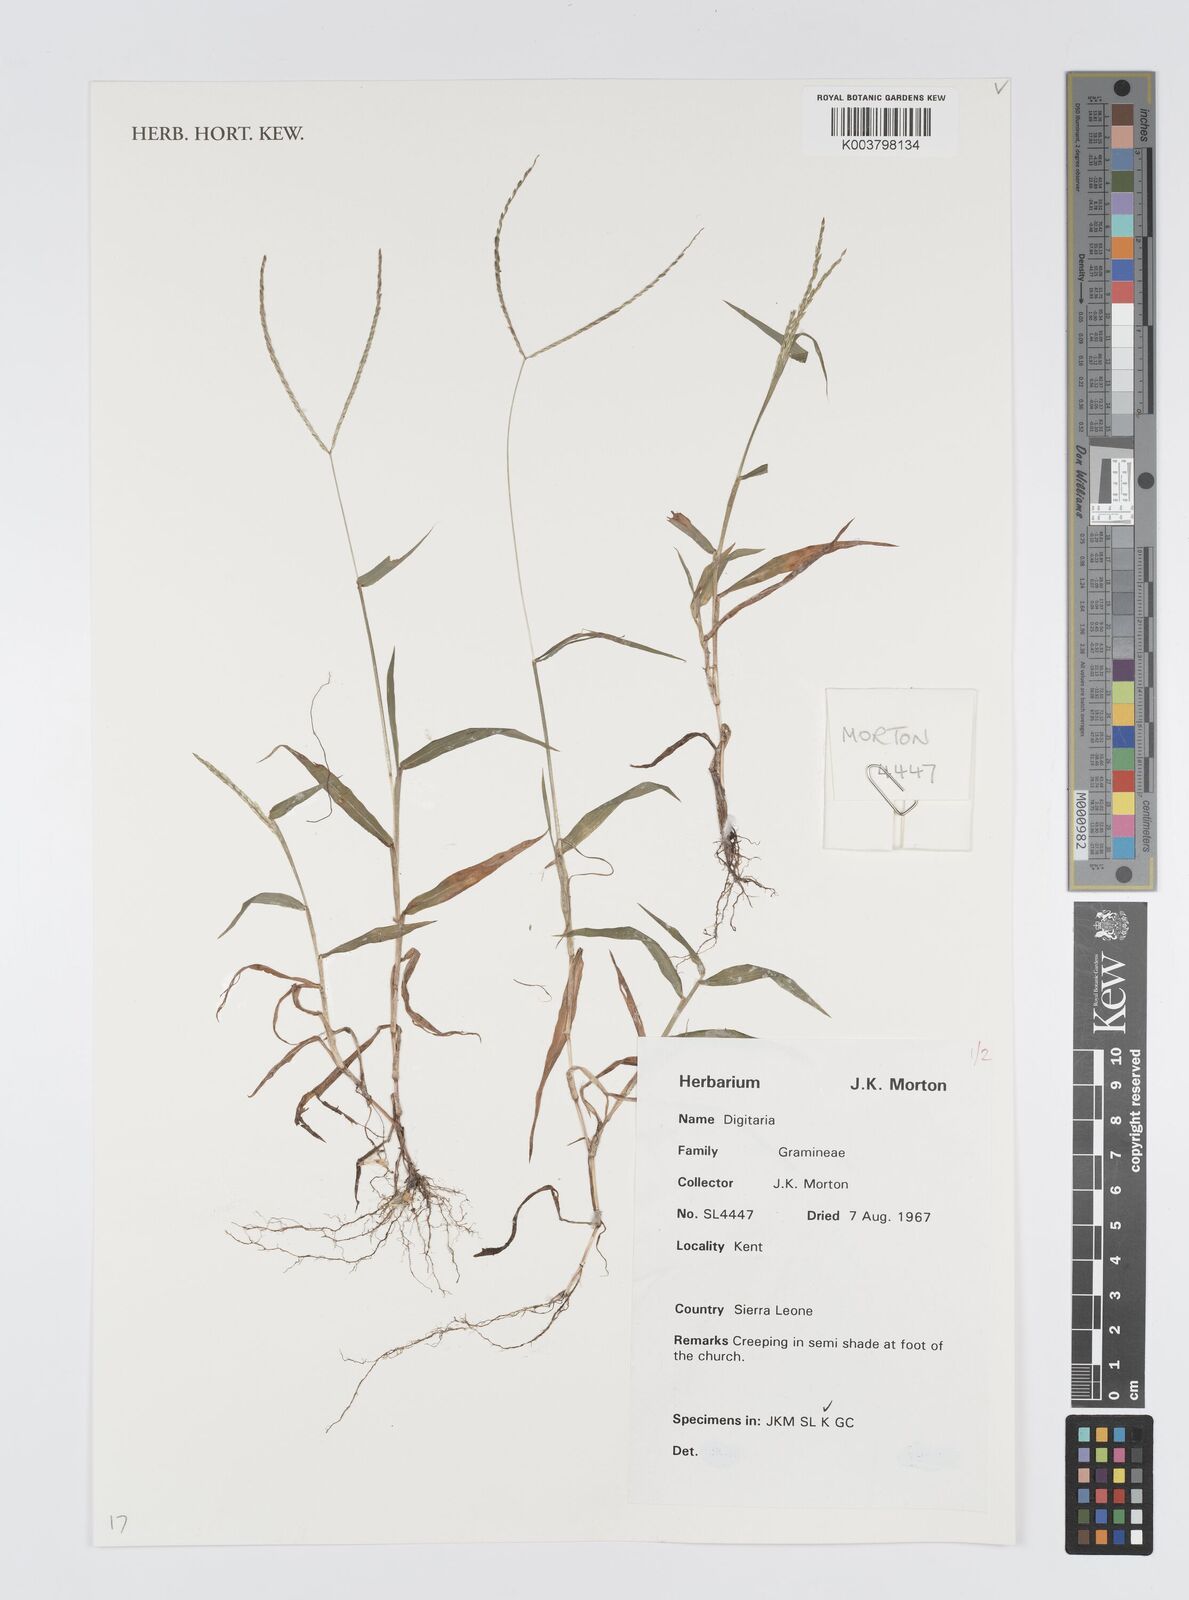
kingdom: Plantae
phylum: Tracheophyta
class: Liliopsida
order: Poales
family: Poaceae
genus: Digitaria
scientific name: Digitaria
